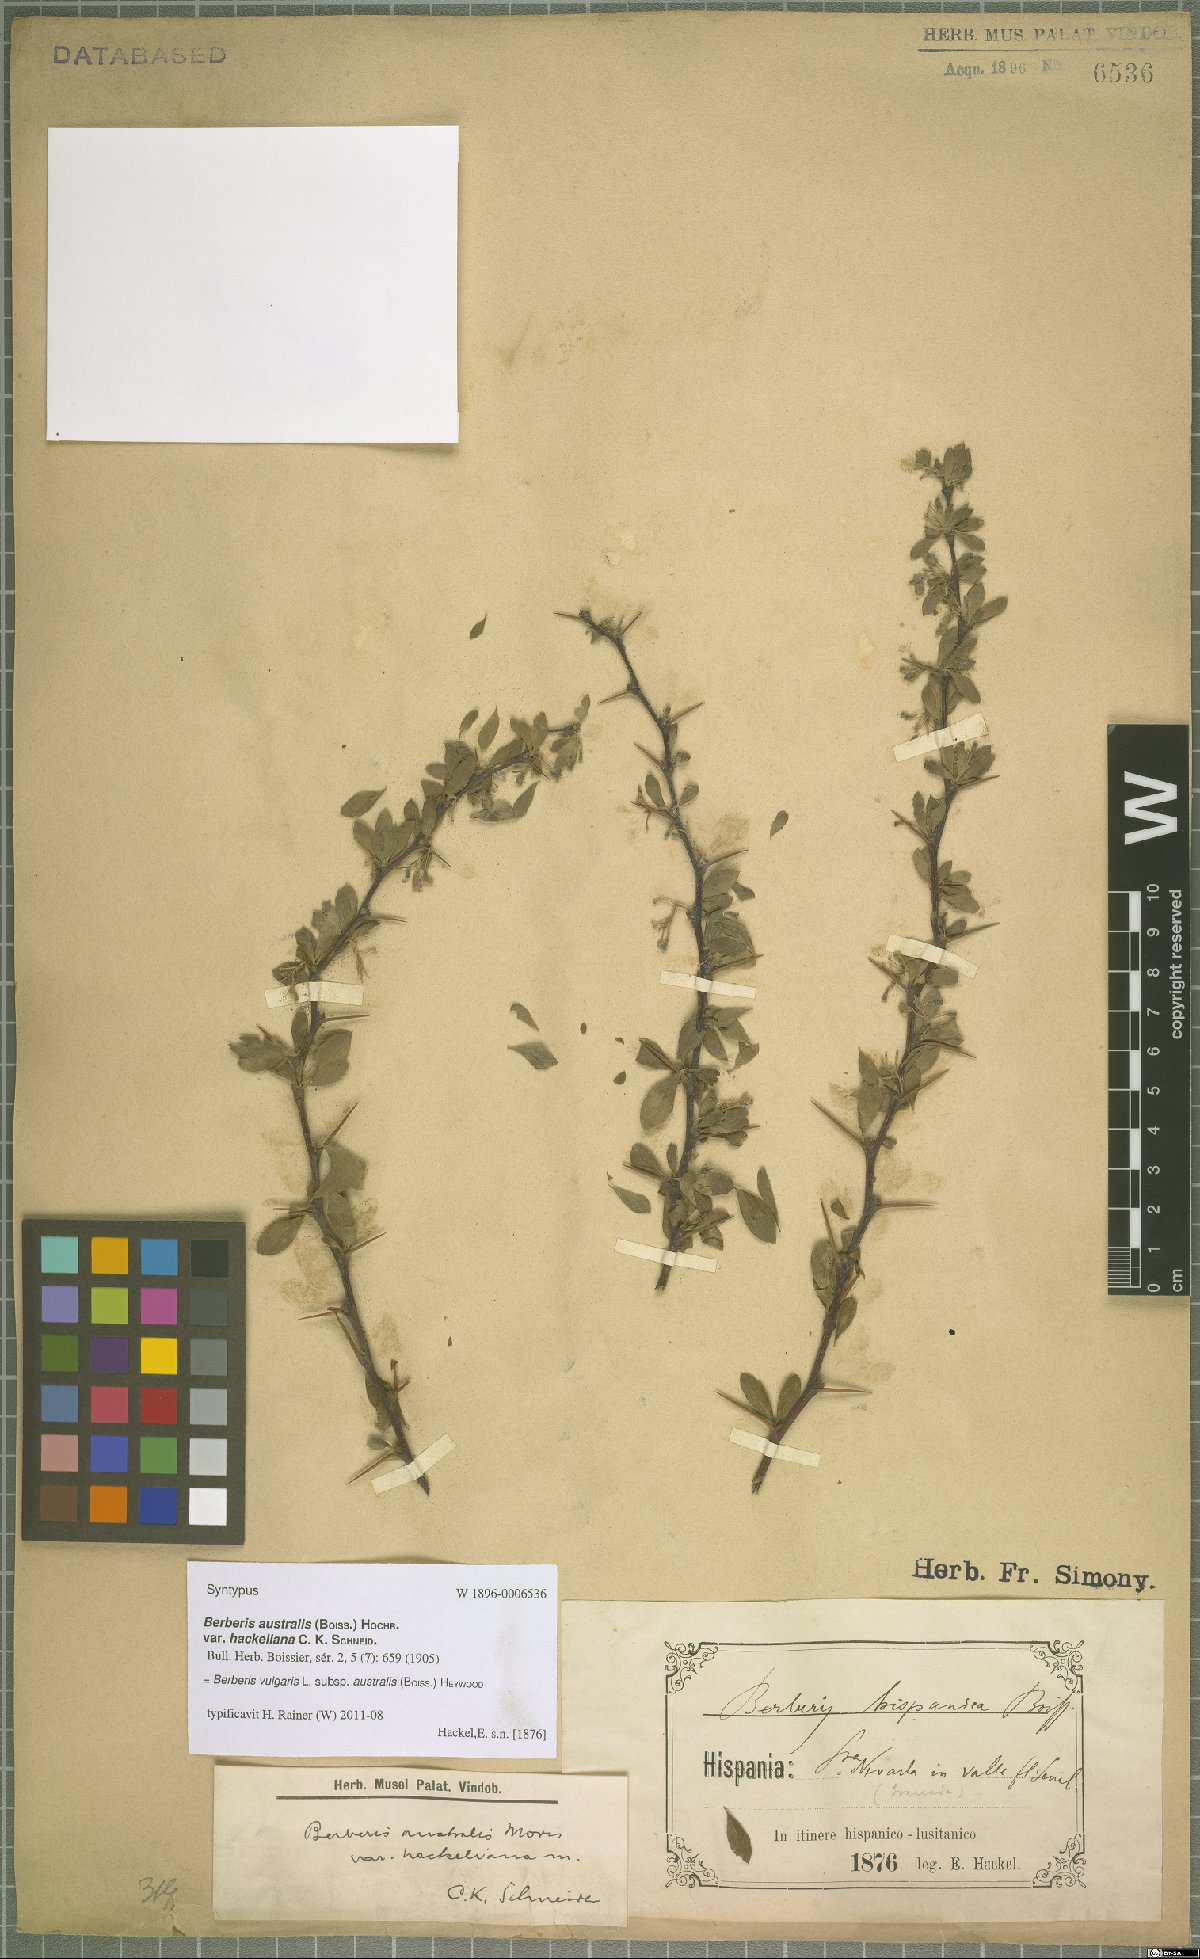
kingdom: Plantae
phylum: Tracheophyta
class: Magnoliopsida
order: Ranunculales
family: Berberidaceae
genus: Berberis
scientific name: Berberis hispanica
